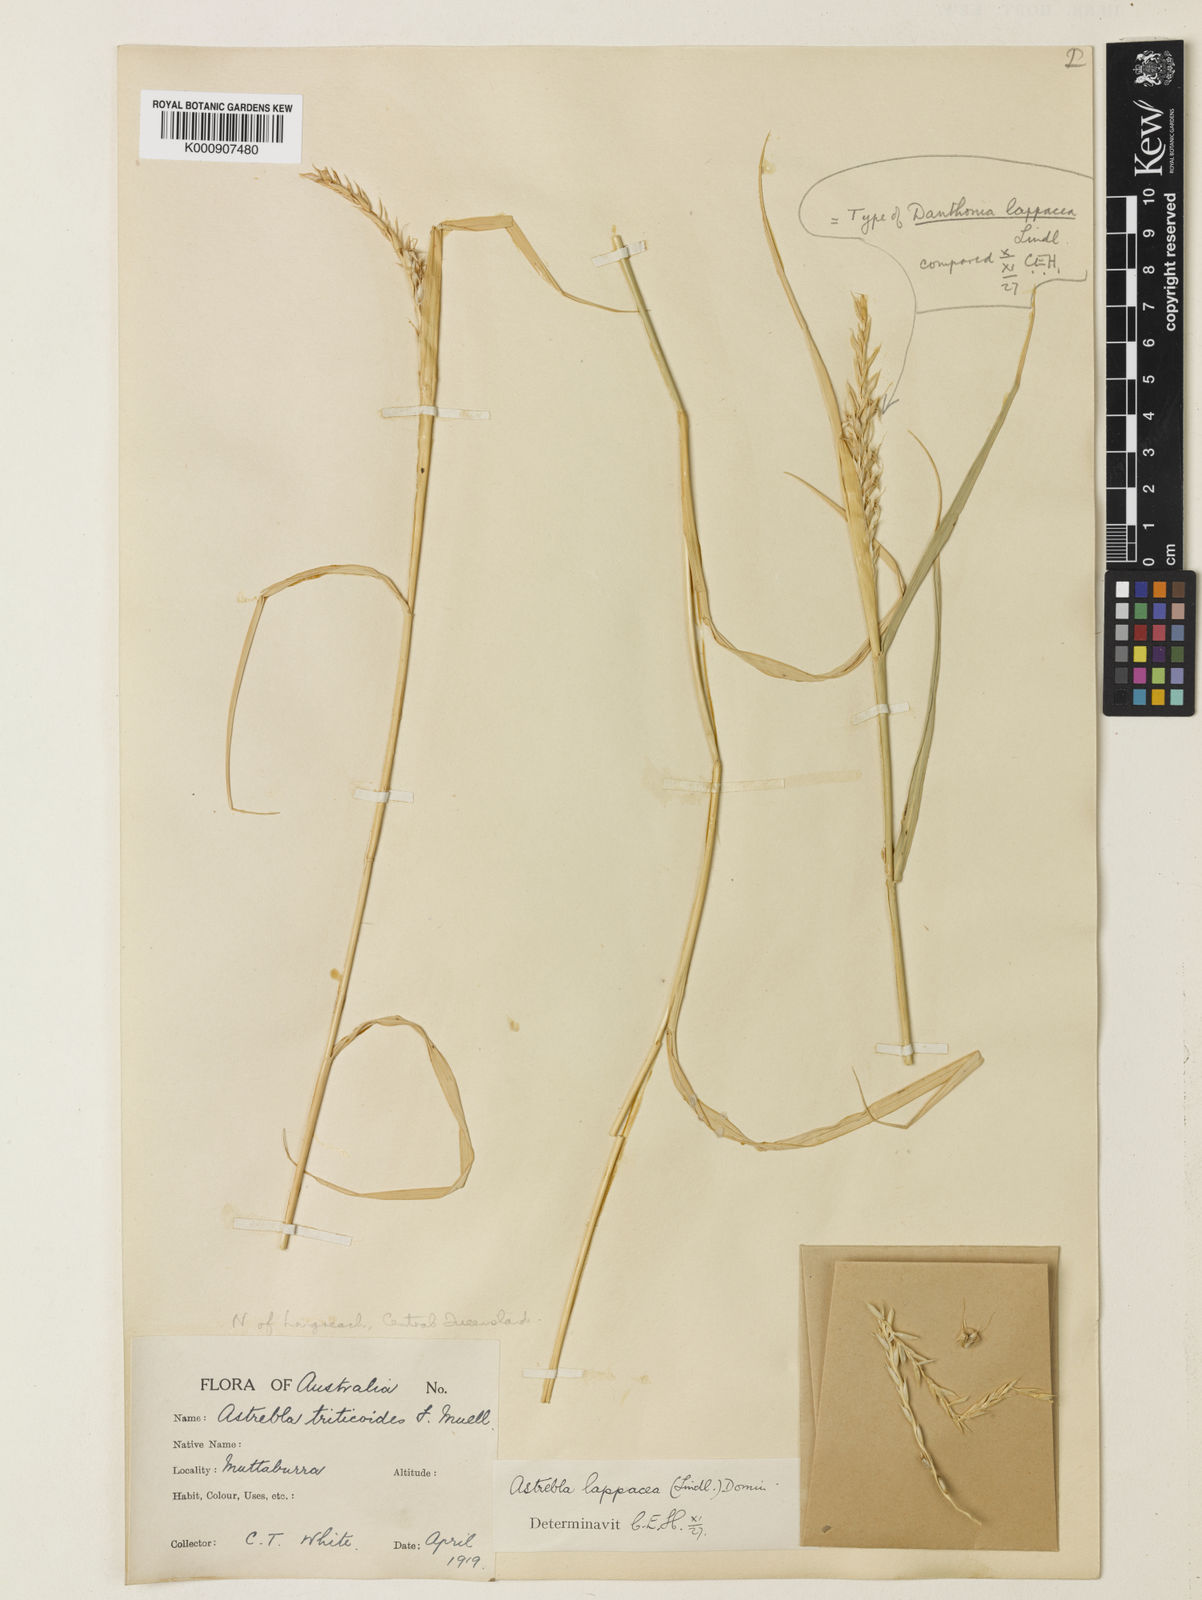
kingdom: Plantae
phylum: Tracheophyta
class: Liliopsida
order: Poales
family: Poaceae
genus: Astrebla
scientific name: Astrebla lappacea
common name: Curly mitchell grass
